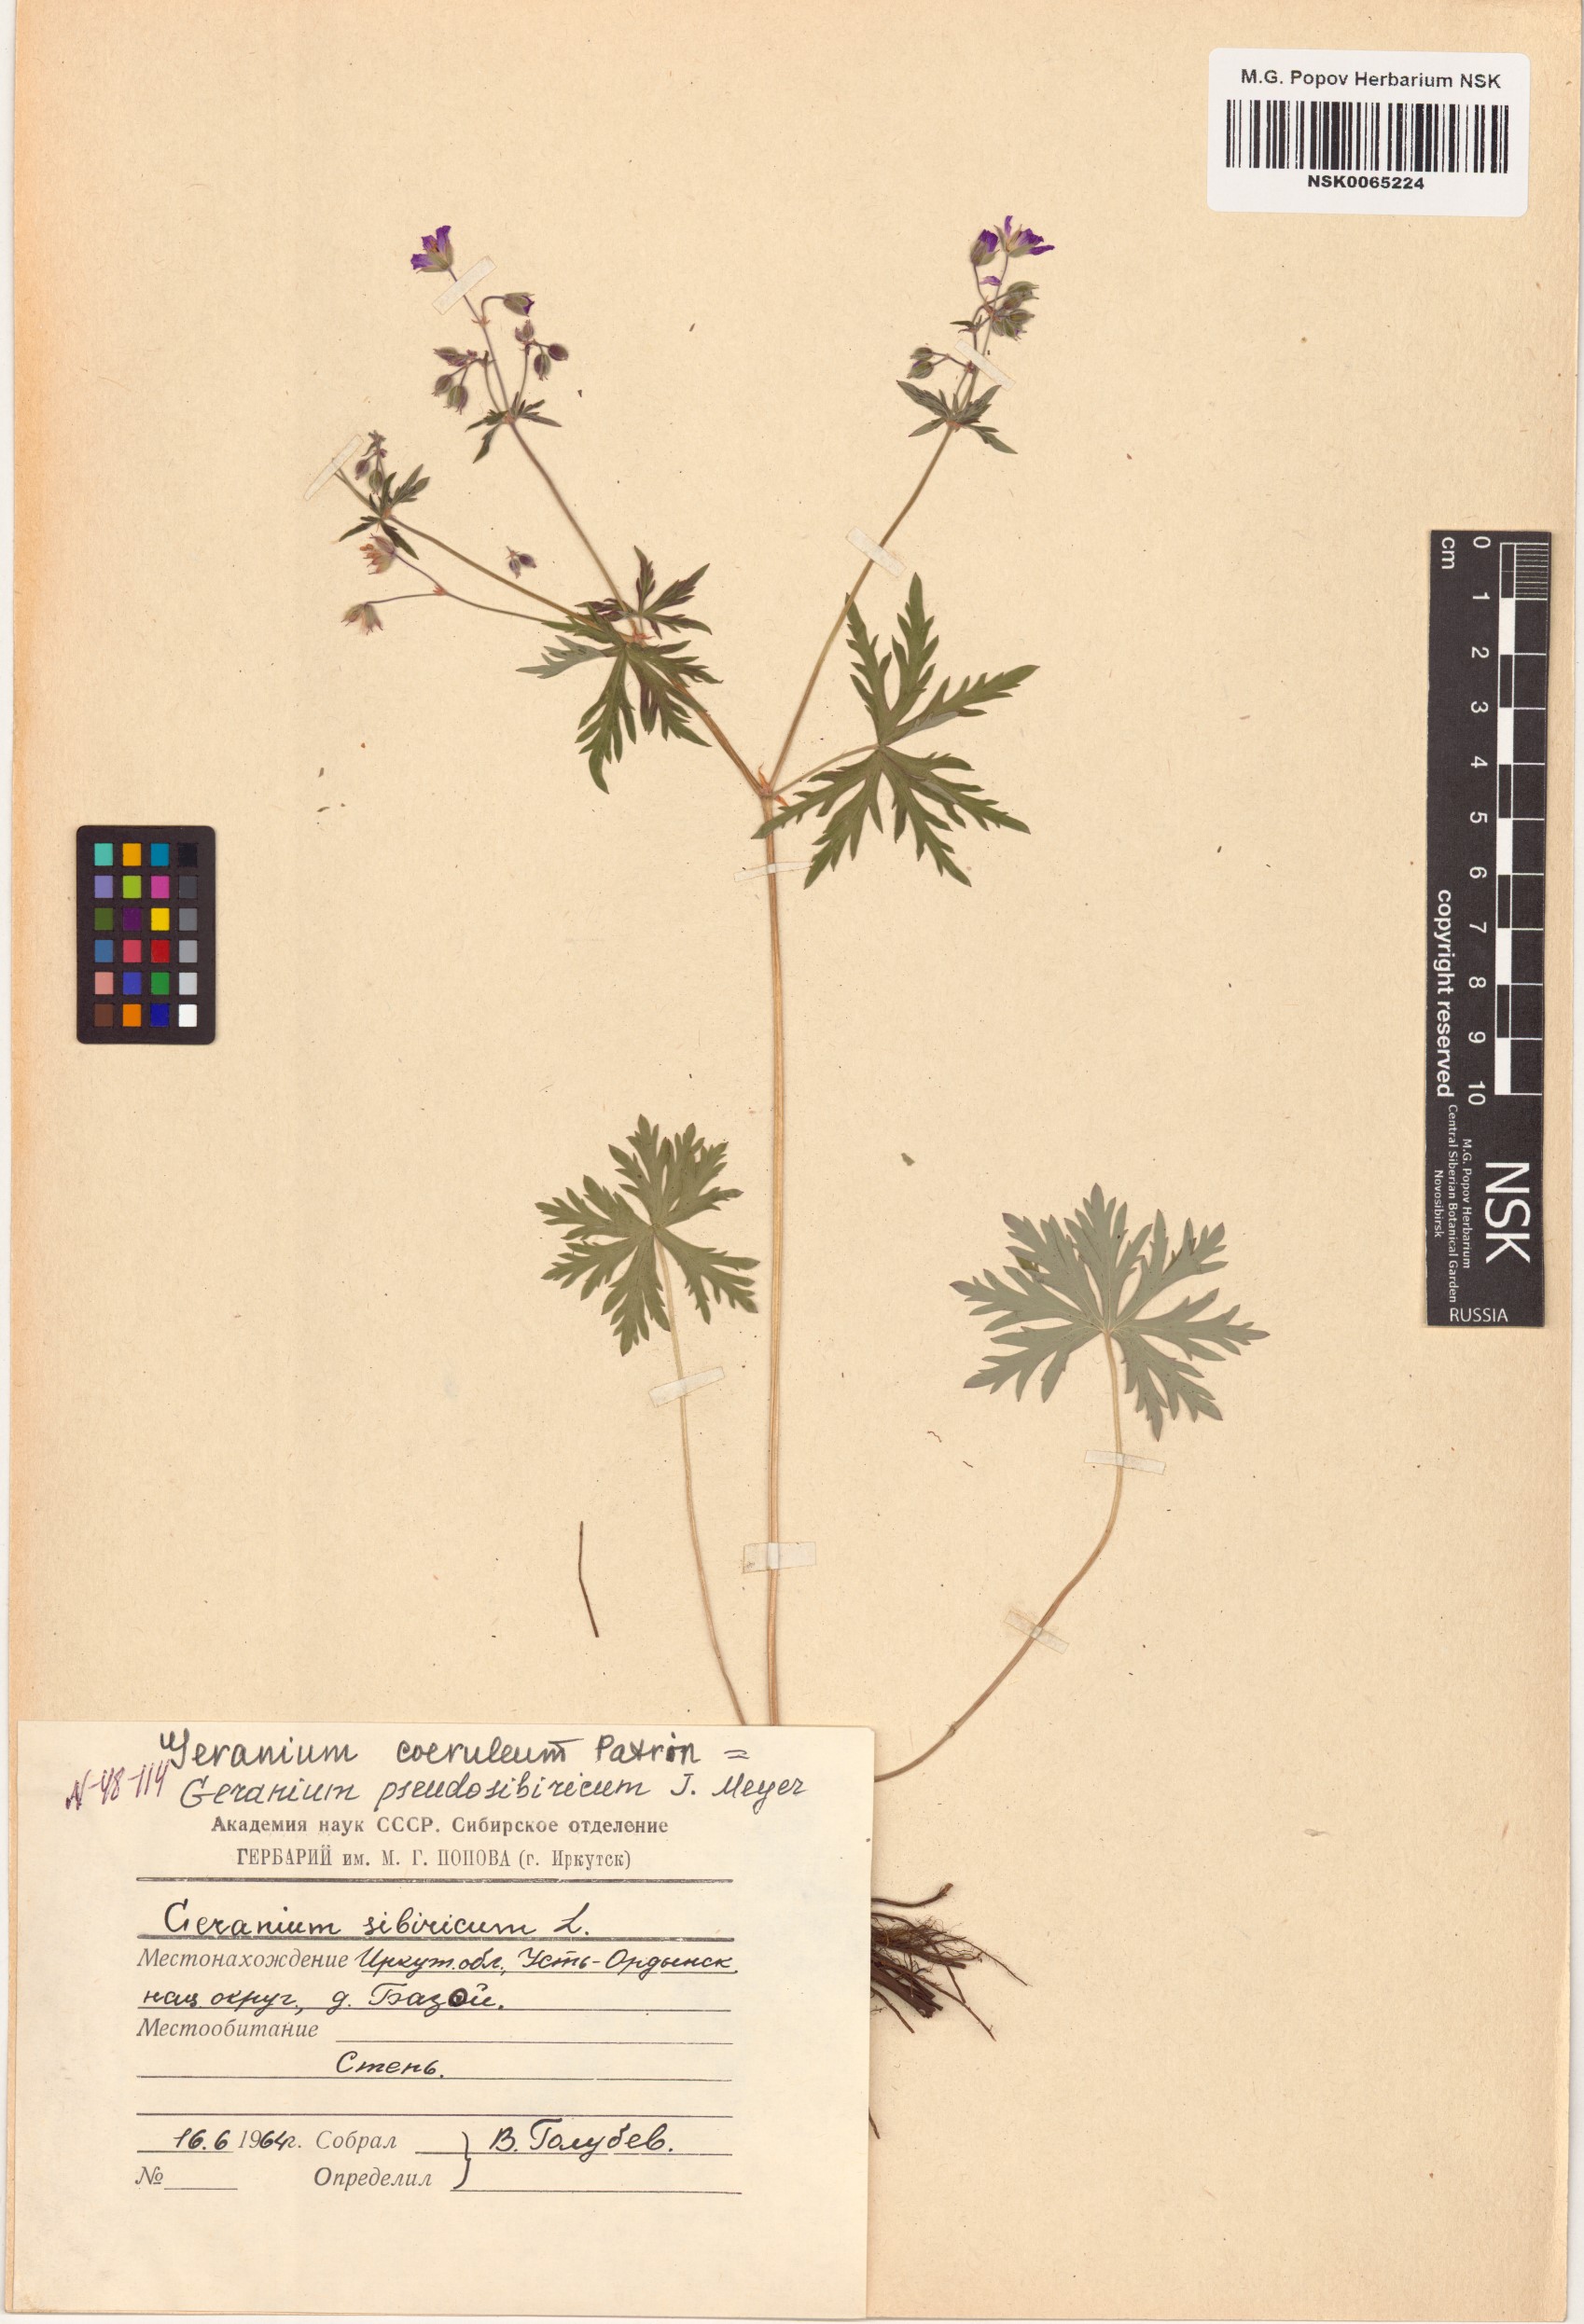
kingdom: Plantae
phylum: Tracheophyta
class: Magnoliopsida
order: Geraniales
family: Geraniaceae
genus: Geranium
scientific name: Geranium pseudosibiricum
